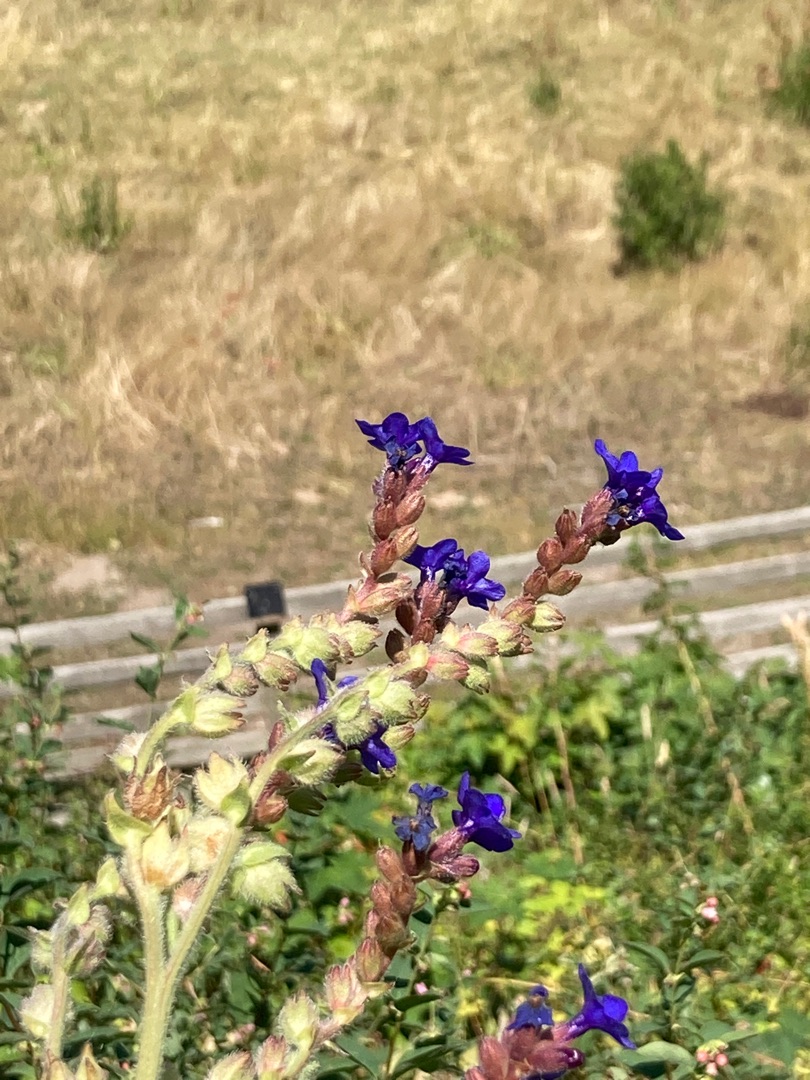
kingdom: Plantae
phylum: Tracheophyta
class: Magnoliopsida
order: Boraginales
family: Boraginaceae
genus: Anchusa
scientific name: Anchusa officinalis
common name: Læge-oksetunge
